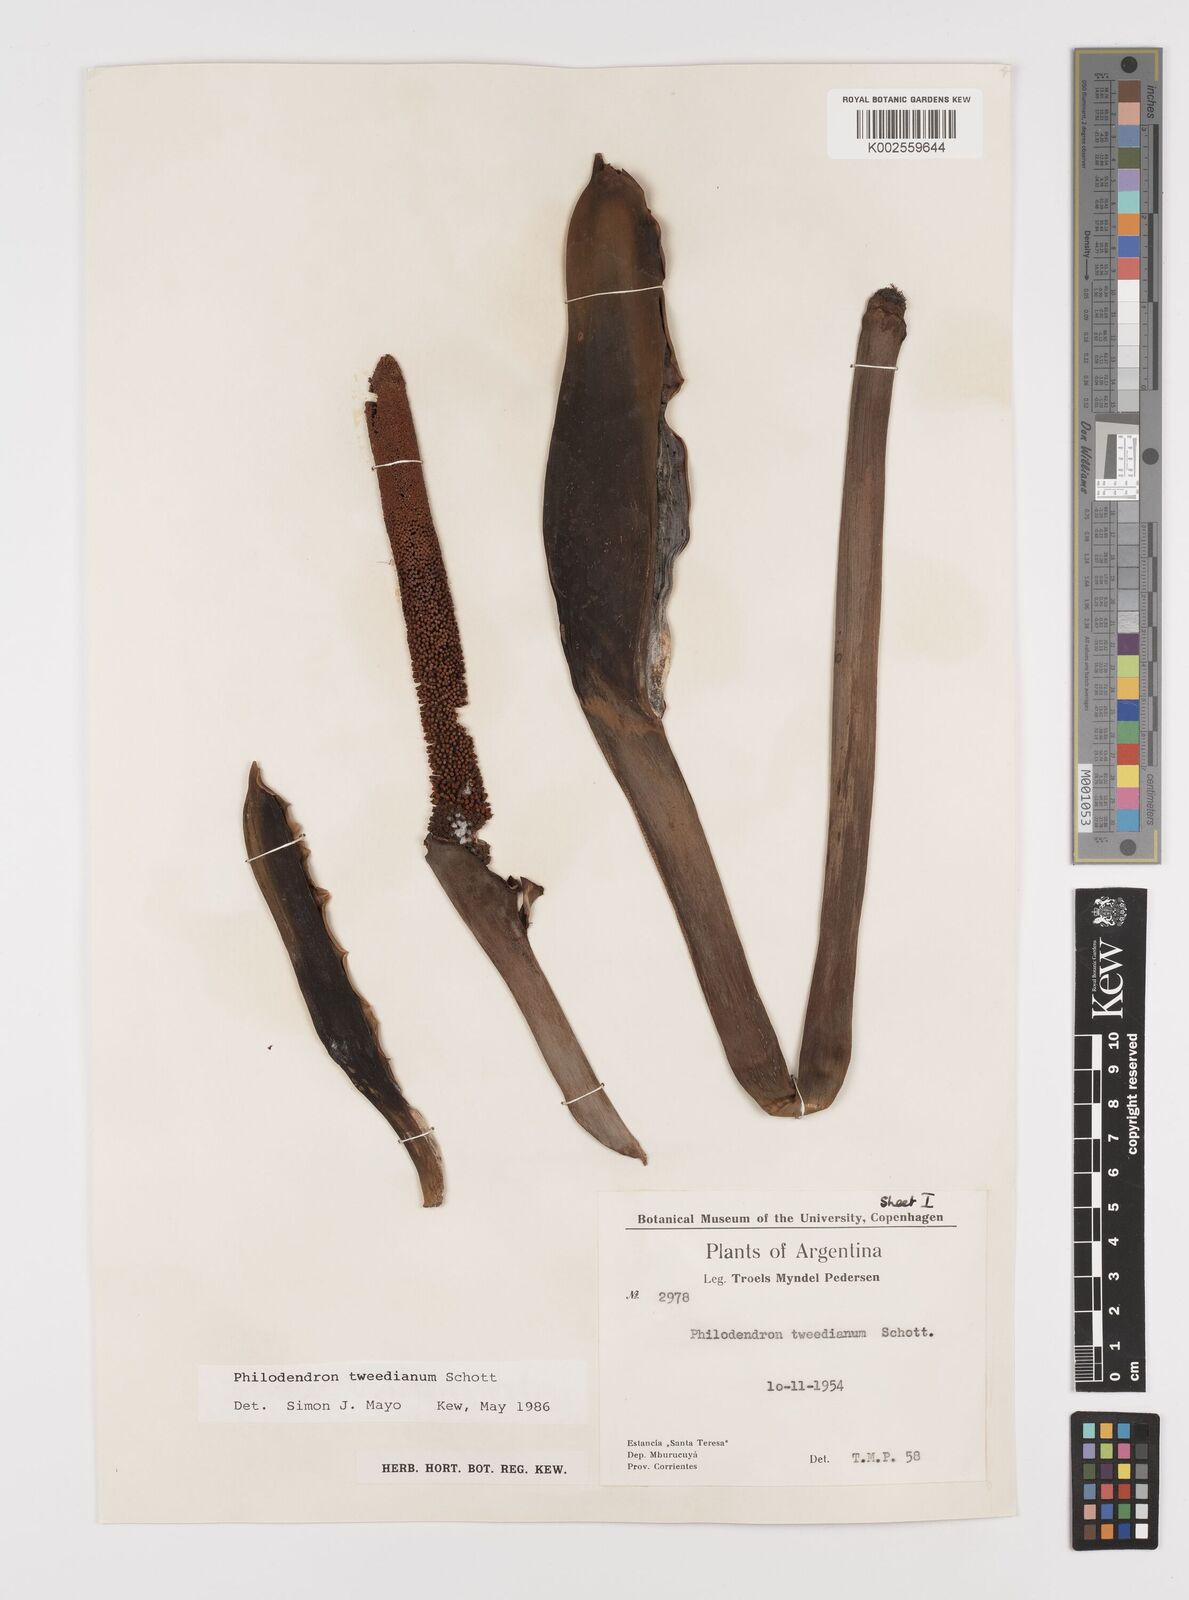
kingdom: Plantae
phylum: Tracheophyta
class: Liliopsida
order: Alismatales
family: Araceae
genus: Thaumatophyllum
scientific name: Thaumatophyllum tweedieanum
